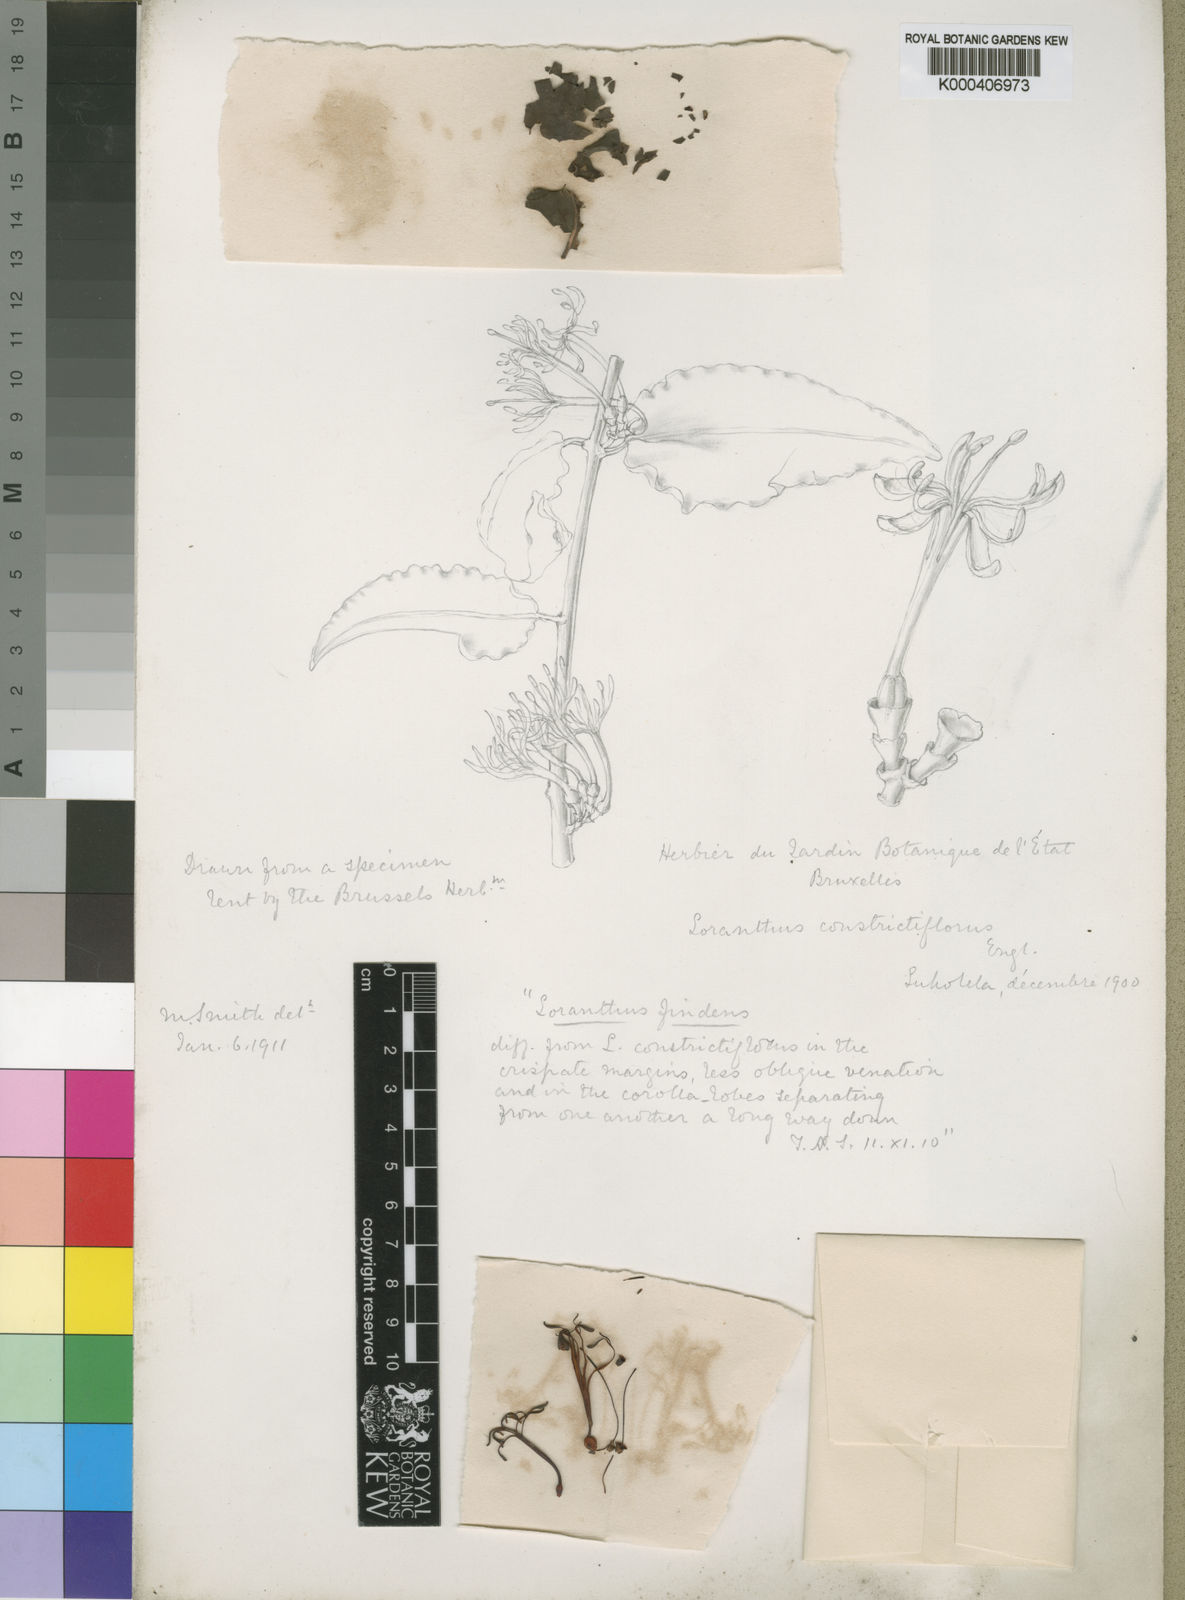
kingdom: Plantae
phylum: Tracheophyta
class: Magnoliopsida
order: Santalales
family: Loranthaceae
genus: Tapinanthus
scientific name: Tapinanthus constrictiflorus
